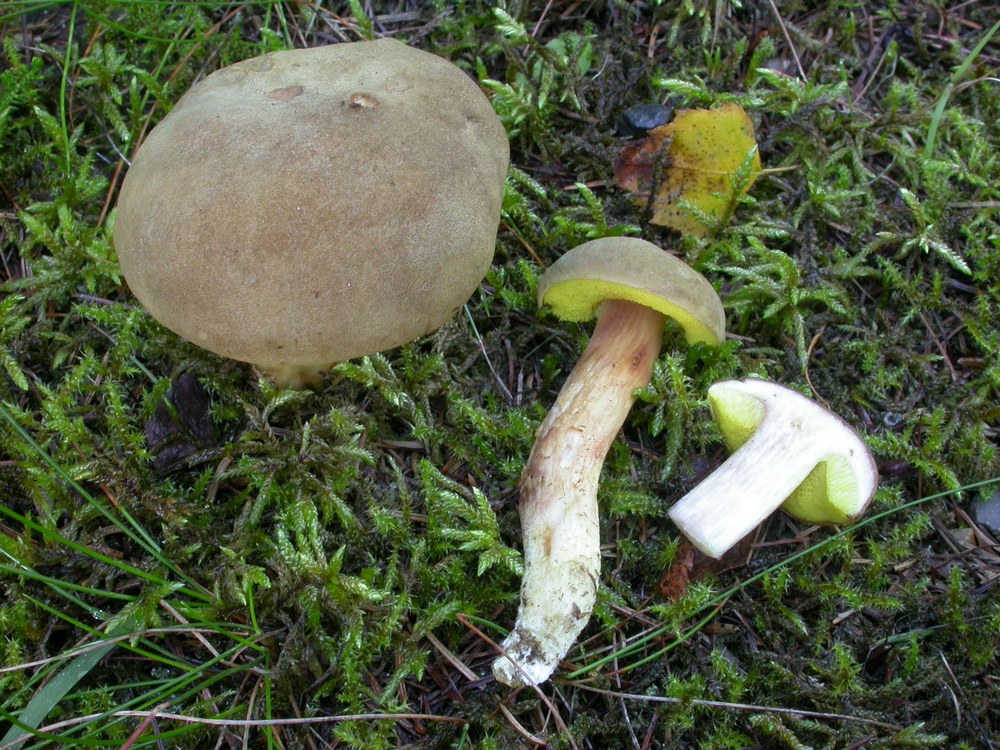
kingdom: Fungi
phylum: Basidiomycota
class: Agaricomycetes
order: Boletales
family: Boletaceae
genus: Xerocomus
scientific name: Xerocomus ferrugineus
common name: vaskeskinds-rørhat
